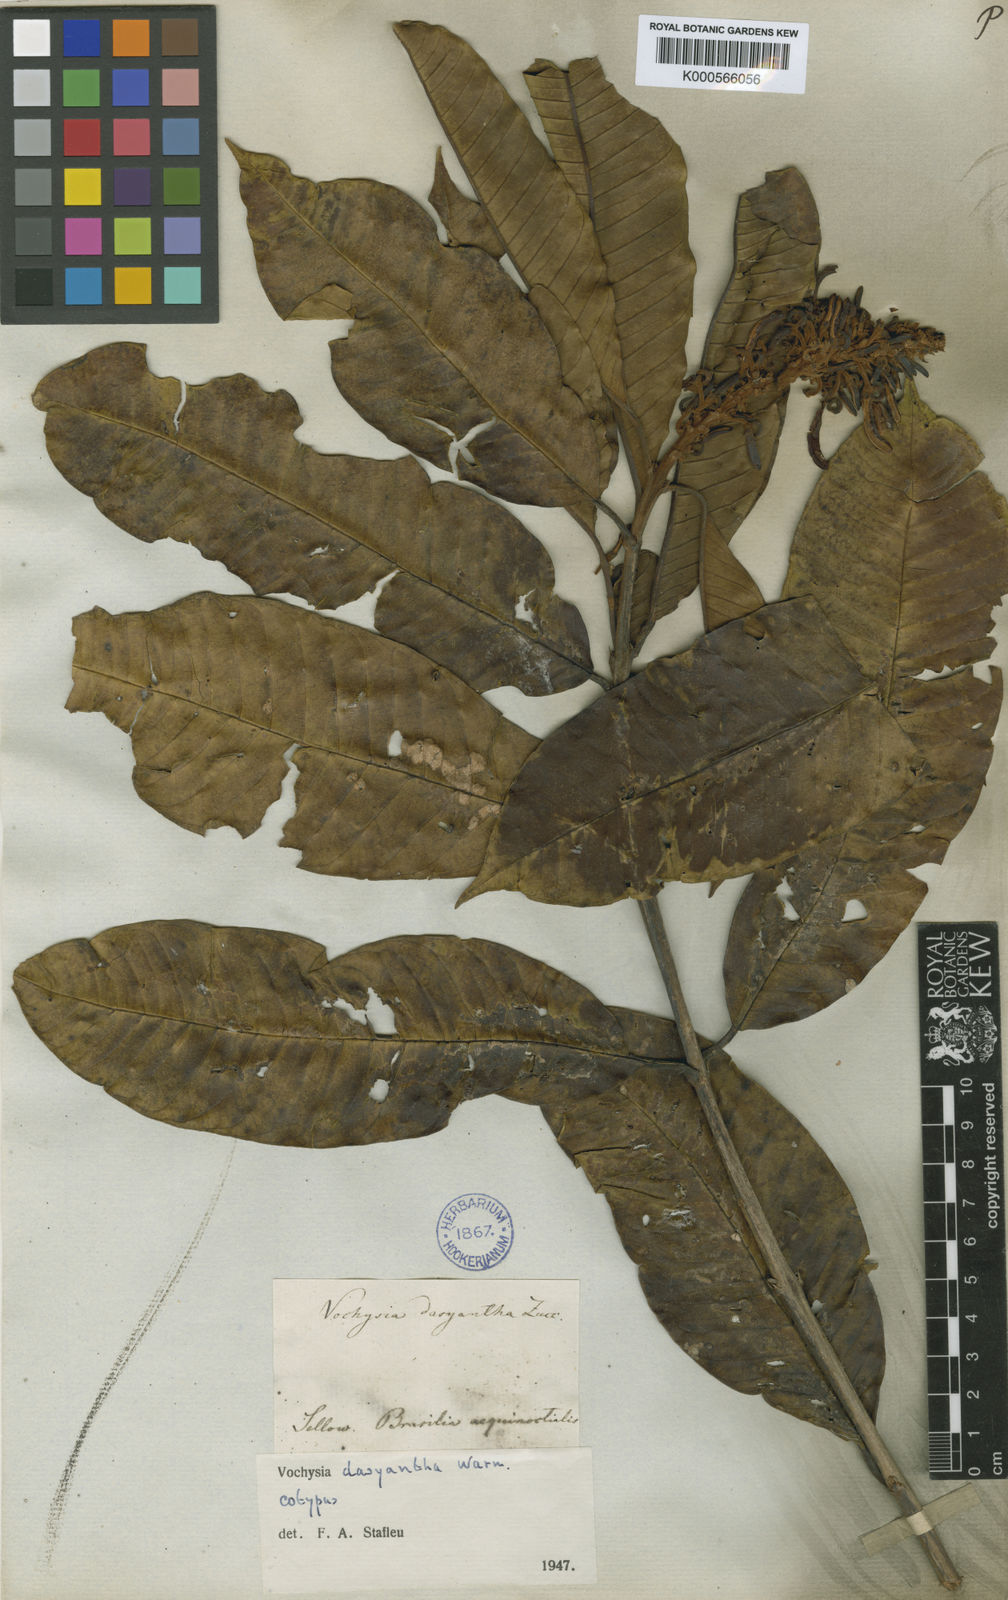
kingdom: Plantae
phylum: Tracheophyta
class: Magnoliopsida
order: Myrtales
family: Vochysiaceae
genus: Vochysia
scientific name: Vochysia dasyantha
